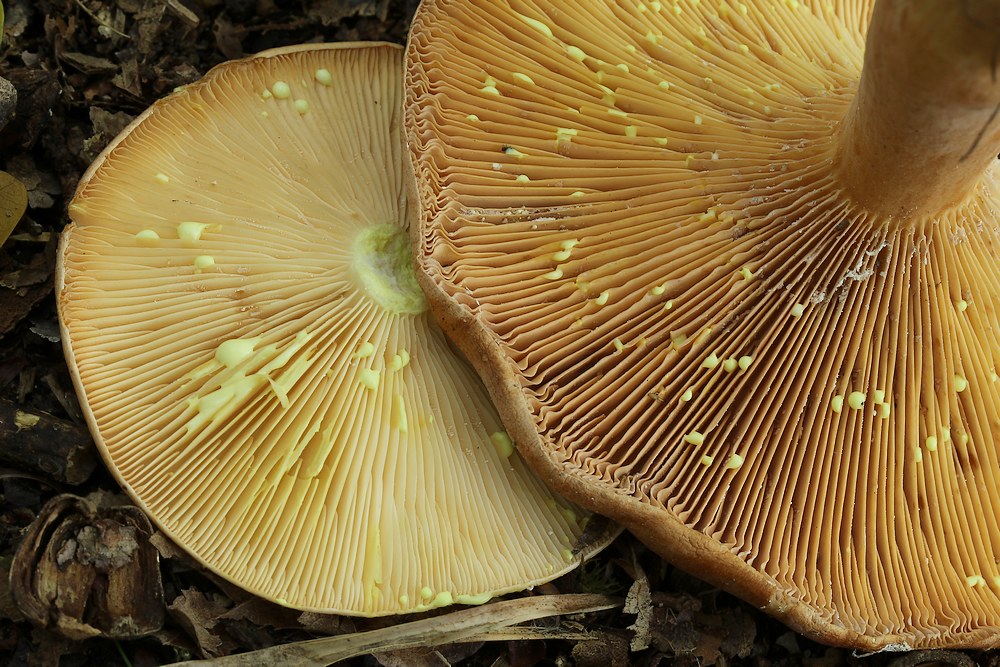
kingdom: Fungi
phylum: Basidiomycota
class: Agaricomycetes
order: Russulales
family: Russulaceae
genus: Lactarius
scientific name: Lactarius chrysorrheus
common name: svovlmælket mælkehat
